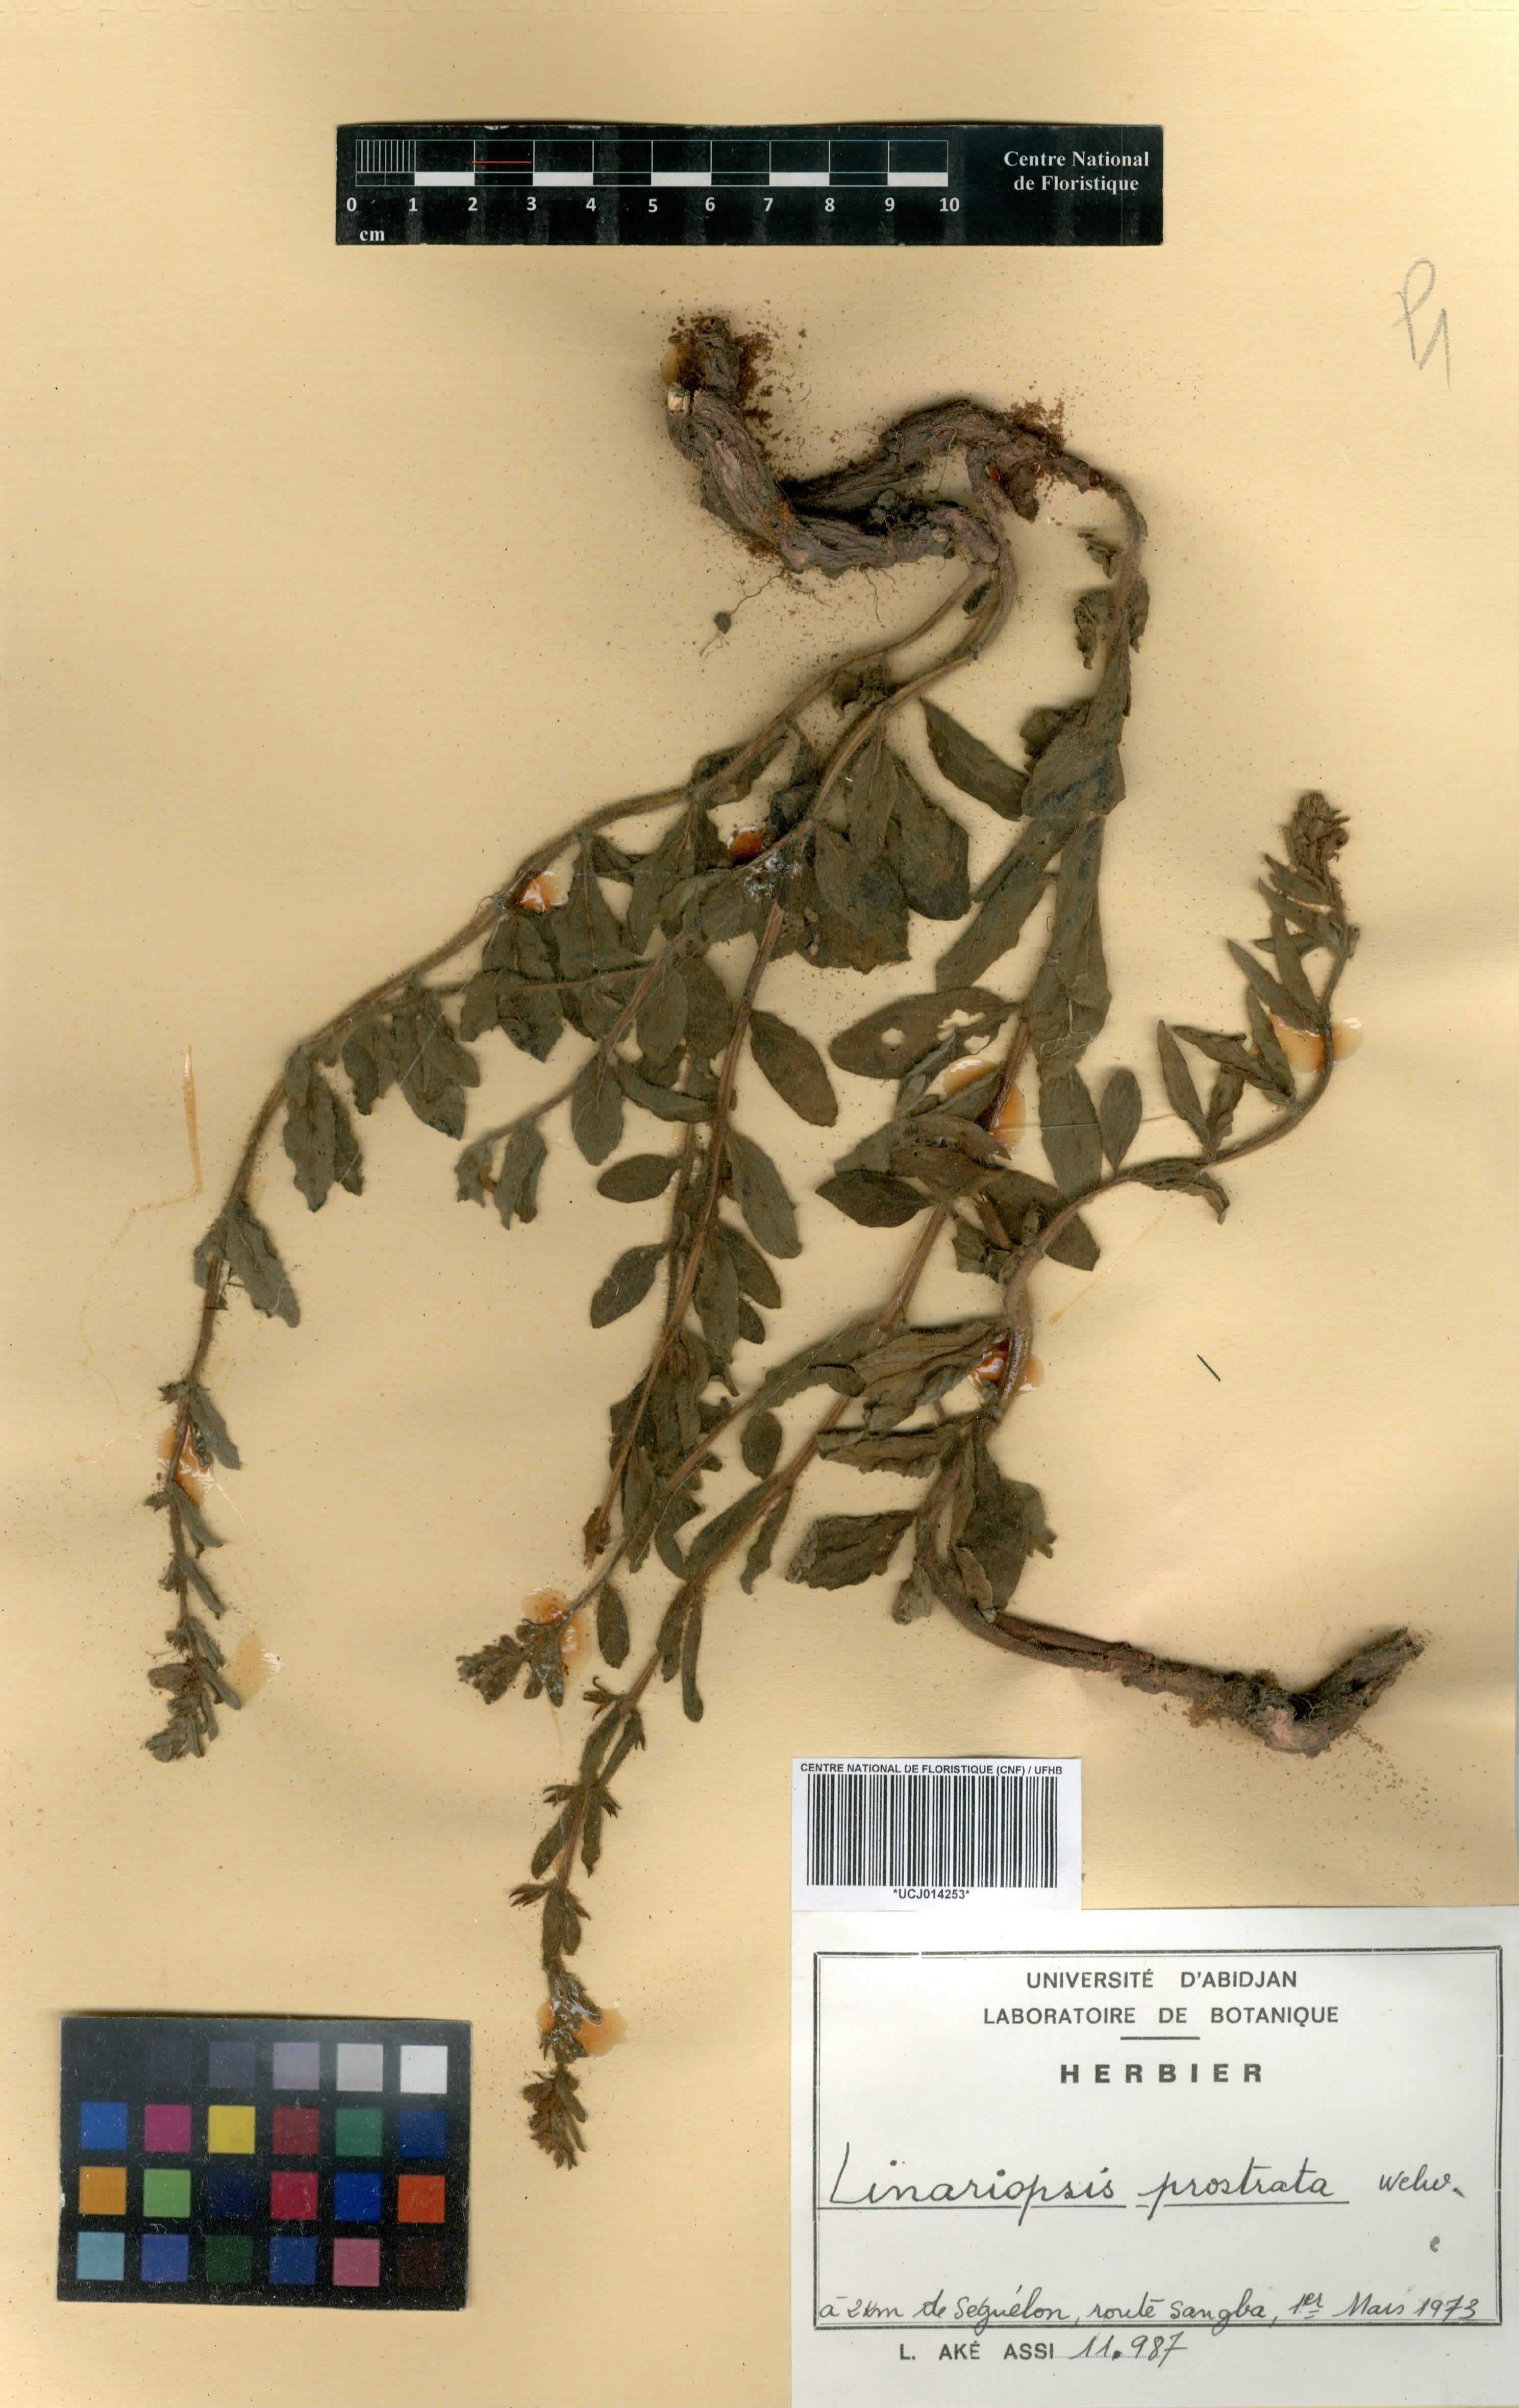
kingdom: Plantae
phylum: Tracheophyta
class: Magnoliopsida
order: Lamiales
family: Pedaliaceae
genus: Linariopsis
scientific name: Linariopsis prostrata
